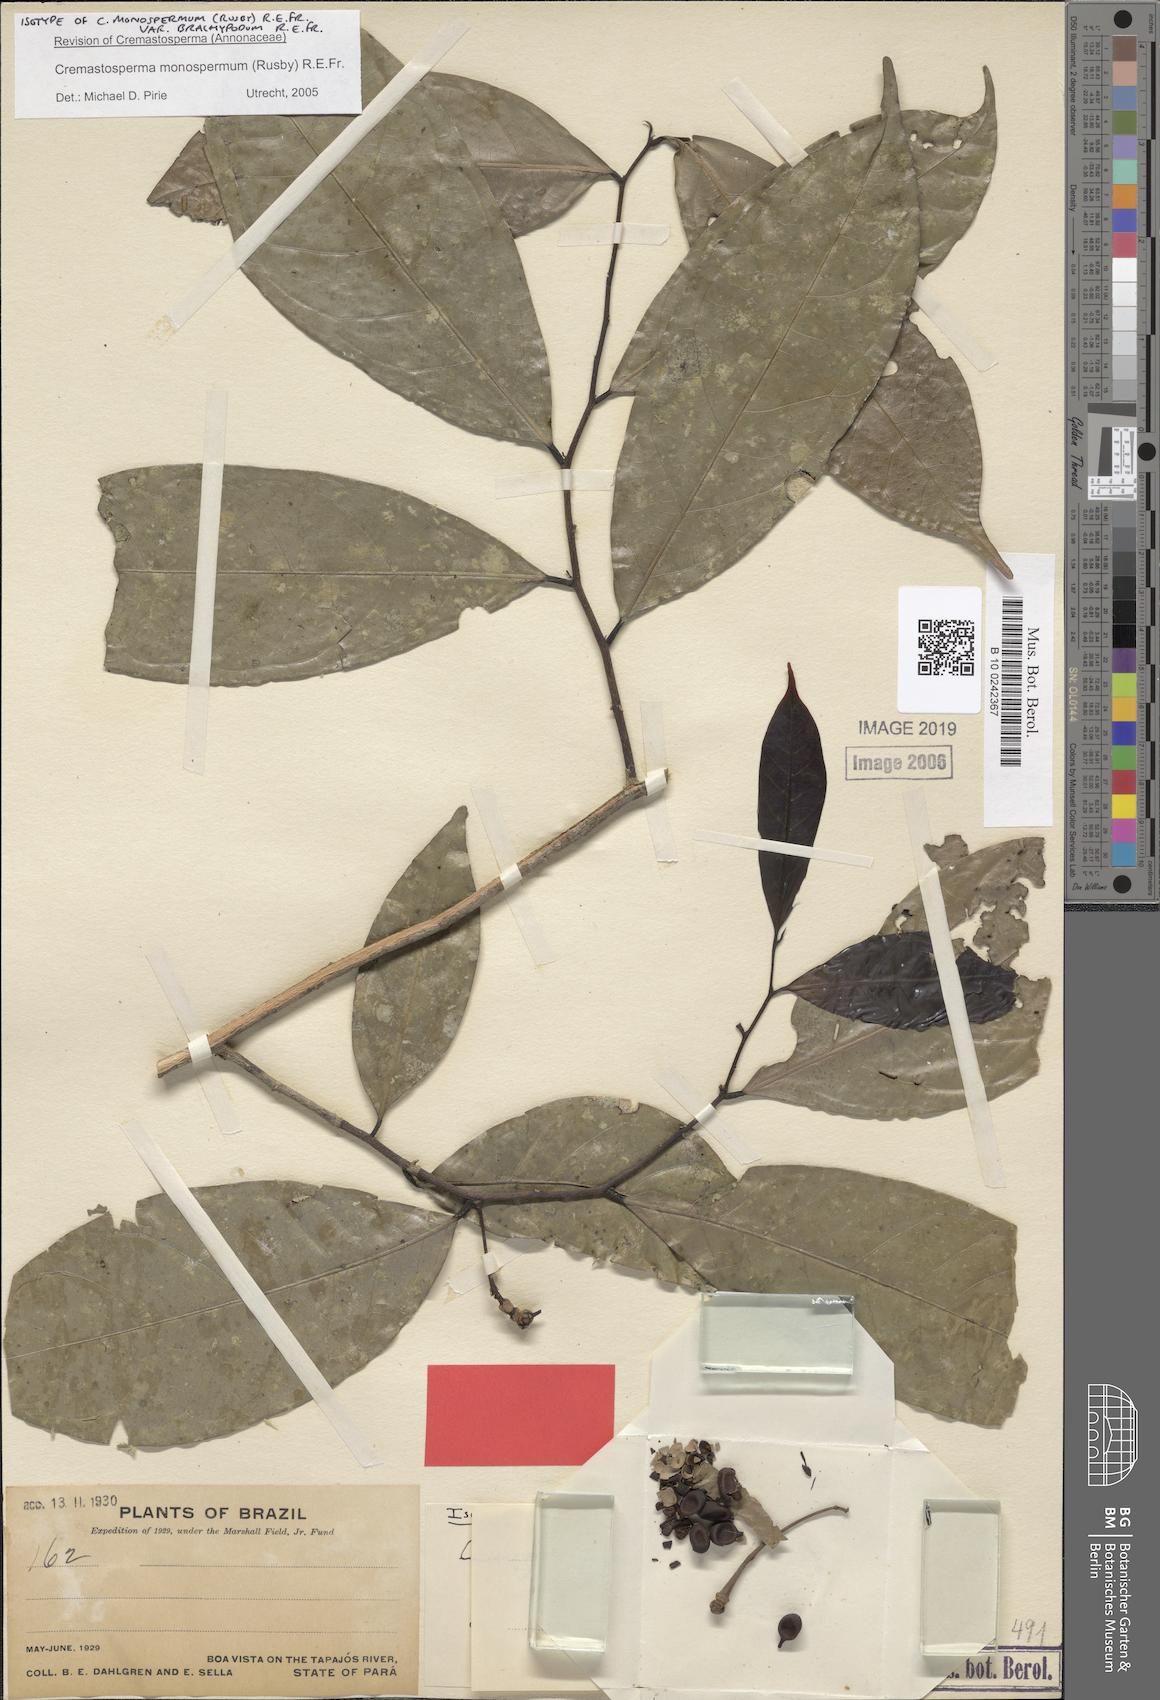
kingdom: Plantae
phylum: Tracheophyta
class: Magnoliopsida
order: Magnoliales
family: Annonaceae
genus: Cremastosperma
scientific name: Cremastosperma monospermum
